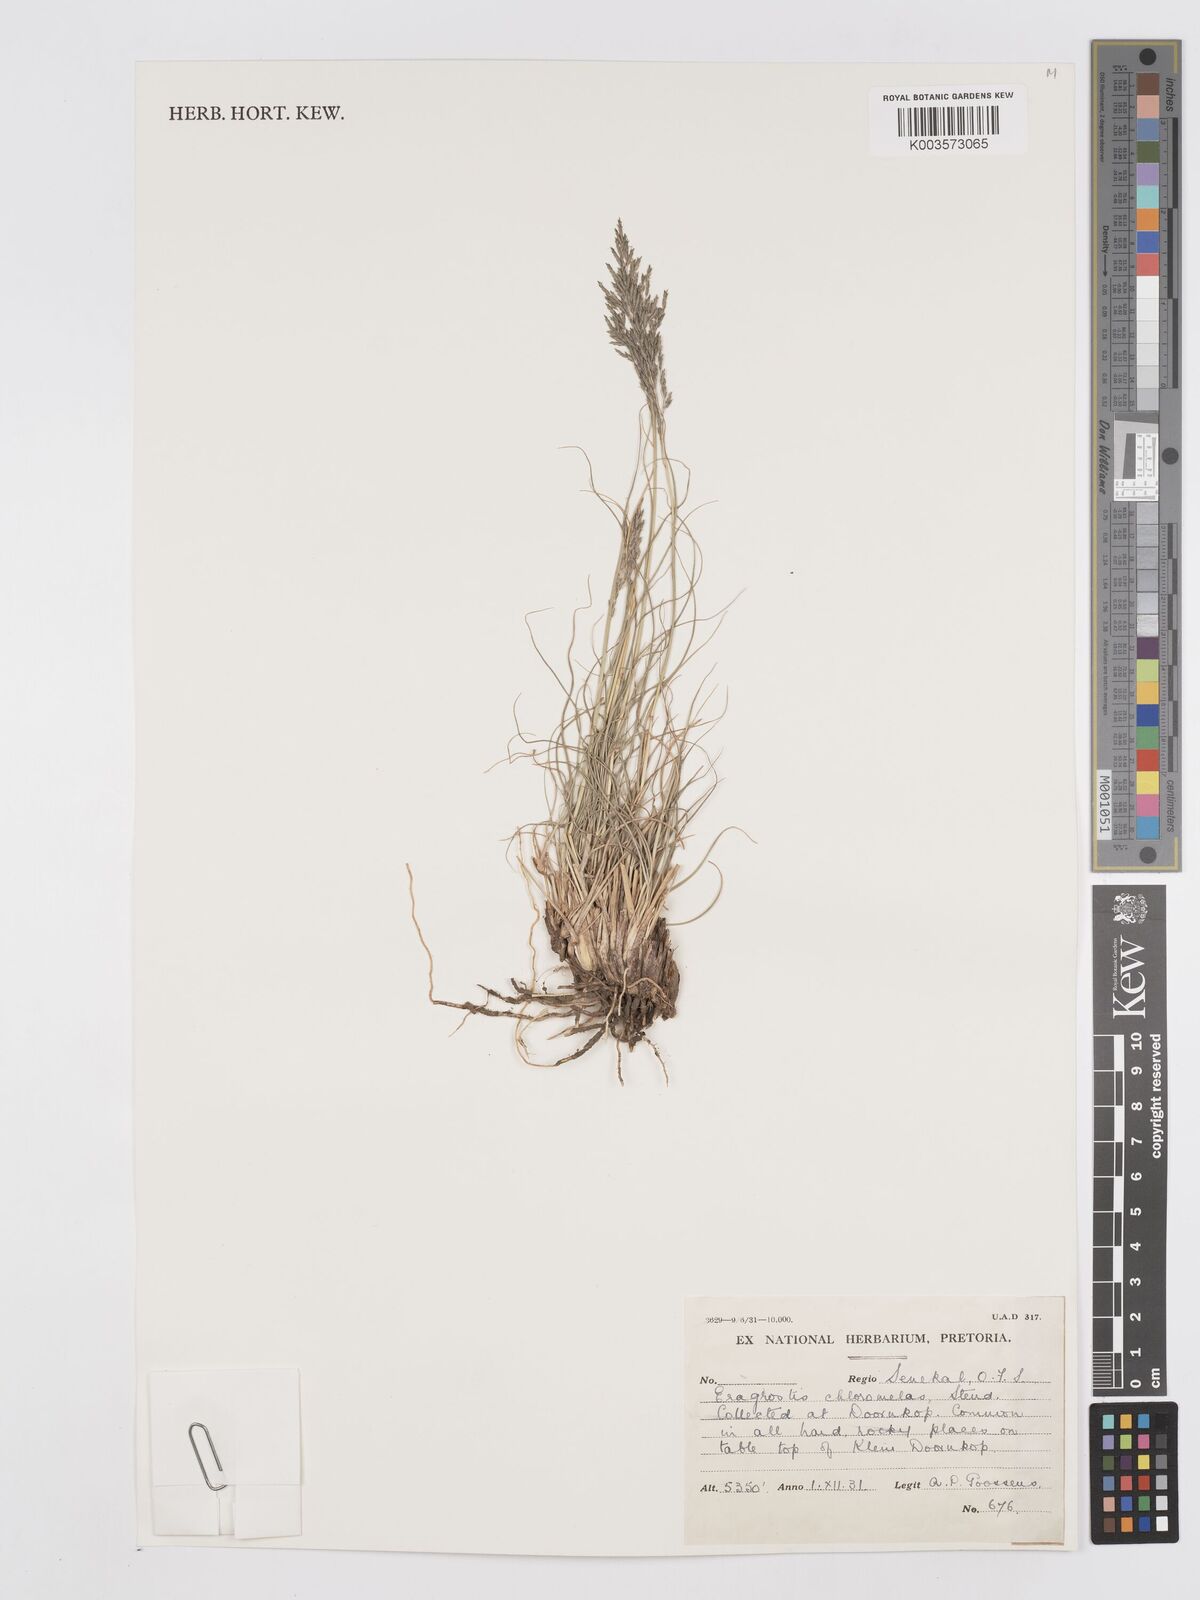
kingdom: Plantae
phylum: Tracheophyta
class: Liliopsida
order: Poales
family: Poaceae
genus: Eragrostis
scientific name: Eragrostis curvula
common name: African love-grass
